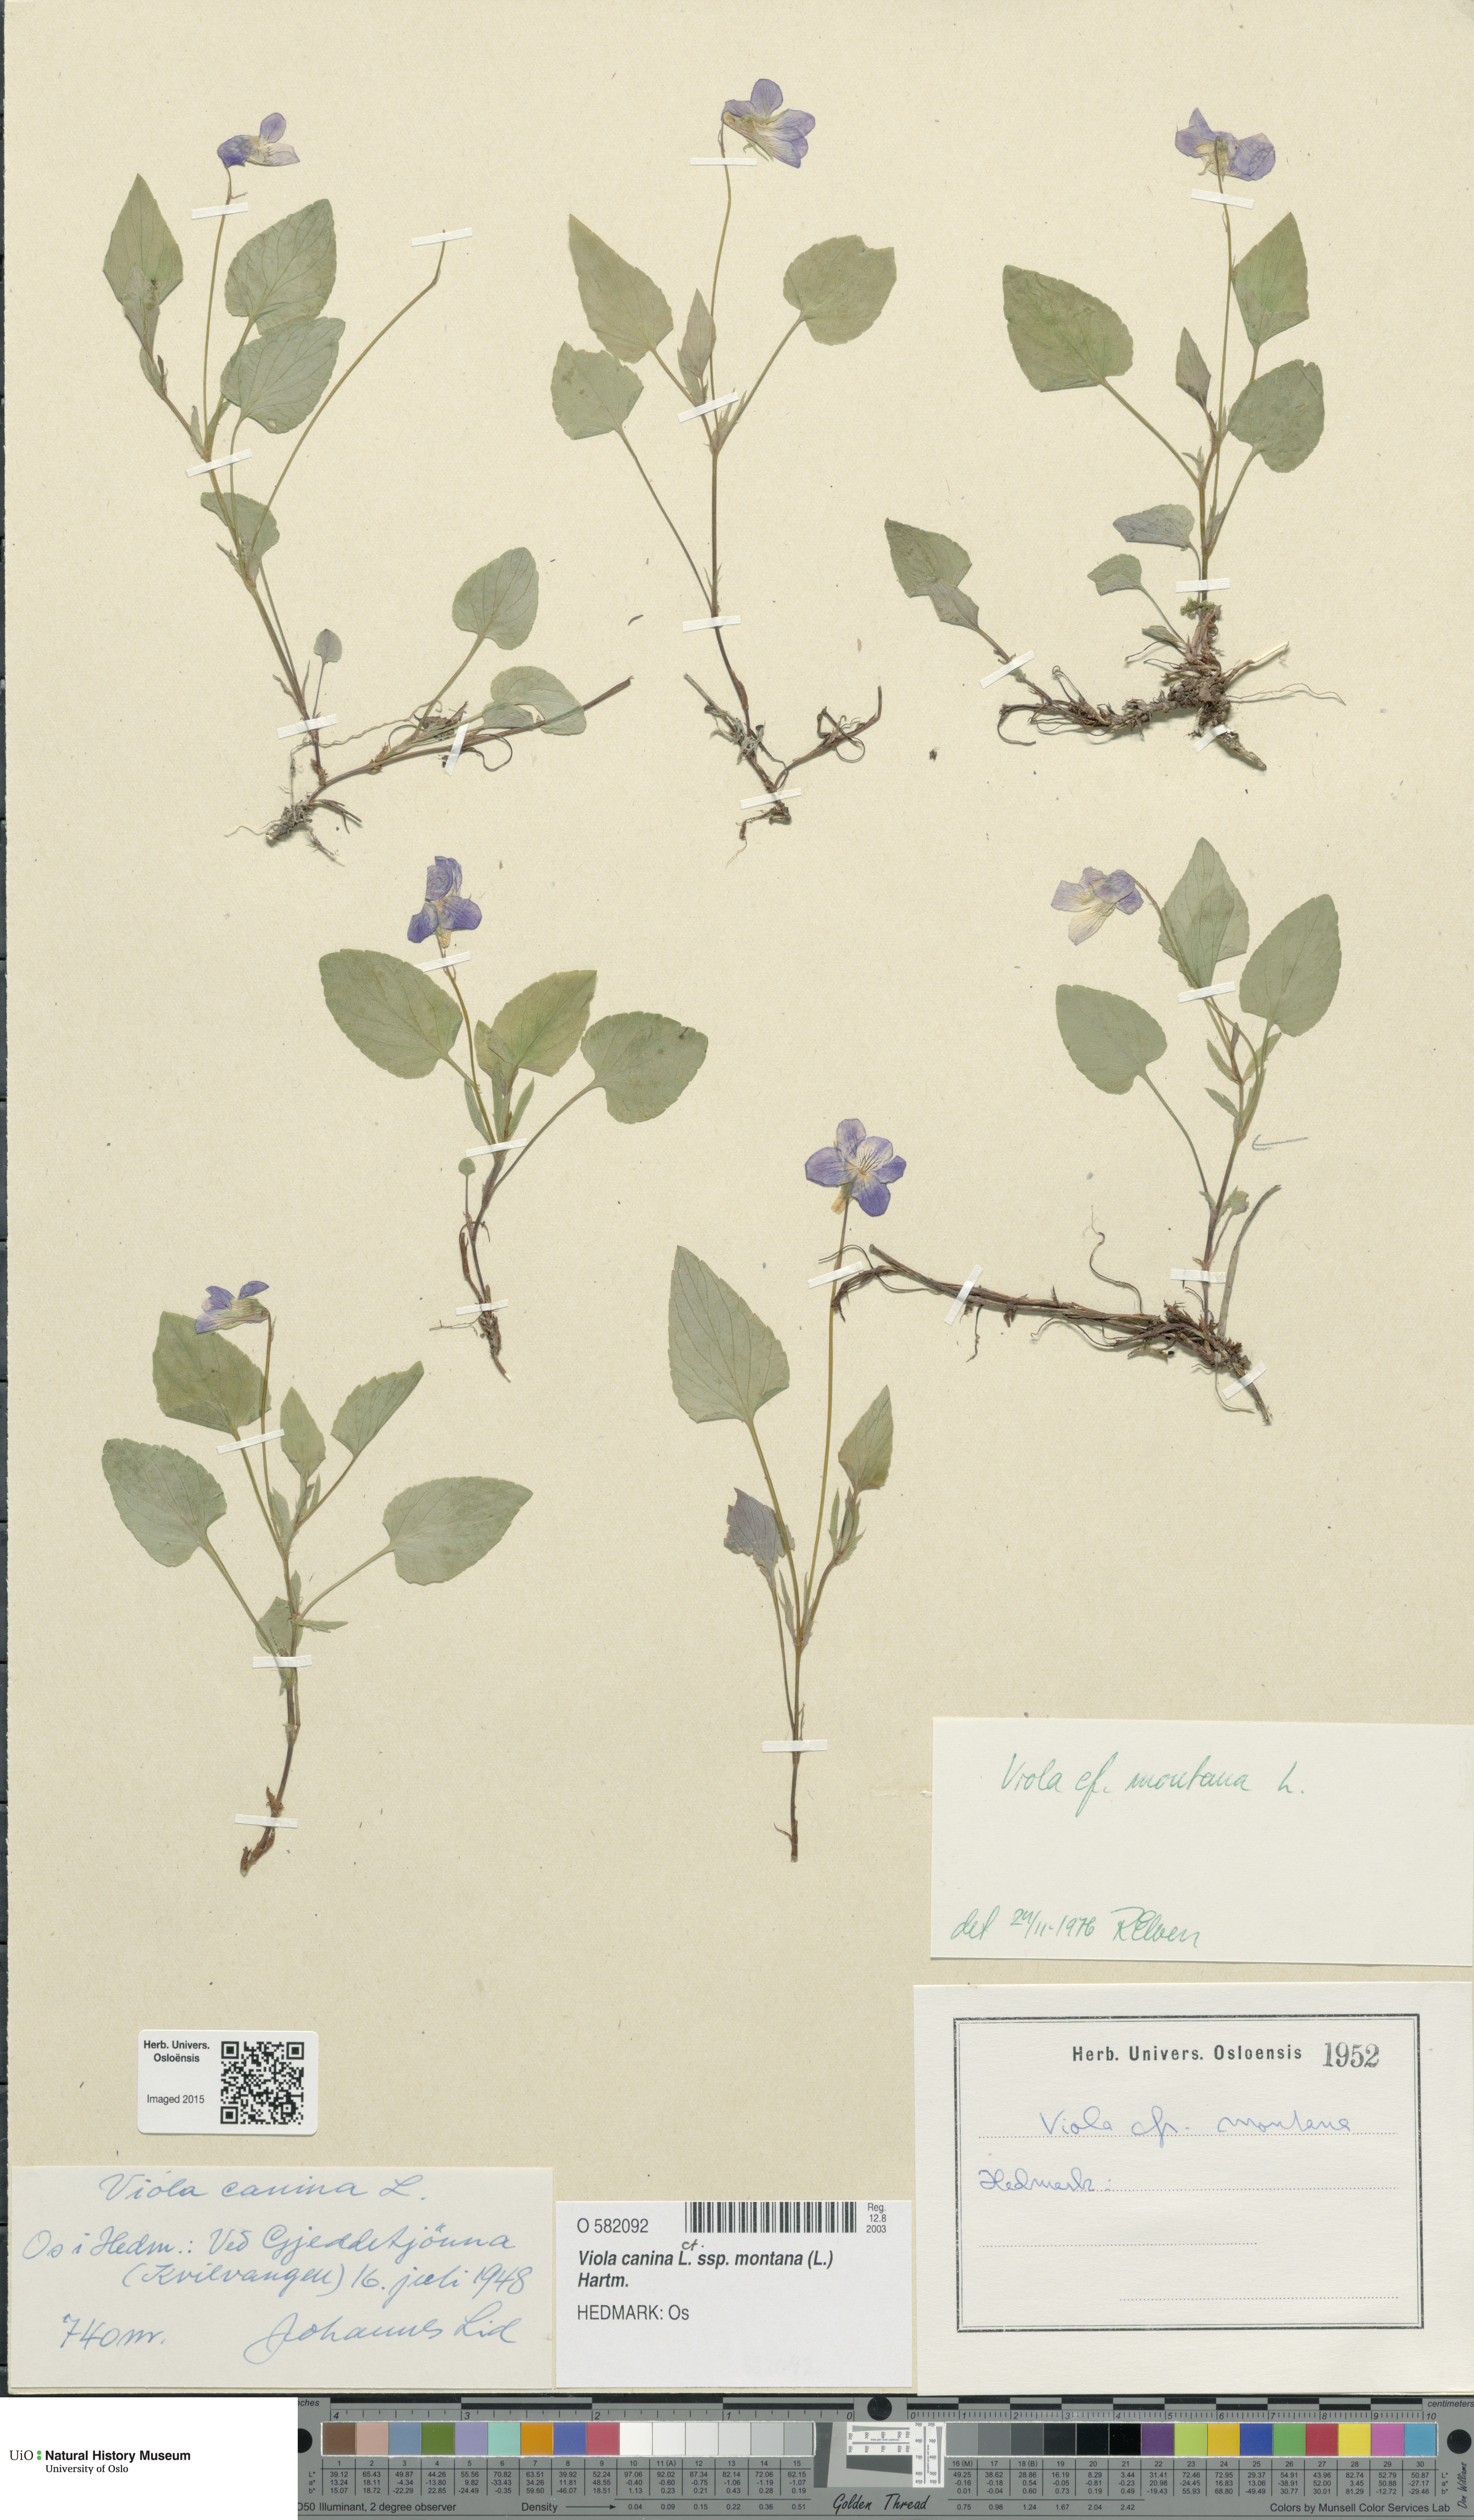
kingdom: Plantae
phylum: Tracheophyta
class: Magnoliopsida
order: Malpighiales
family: Violaceae
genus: Viola
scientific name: Viola ruppii
